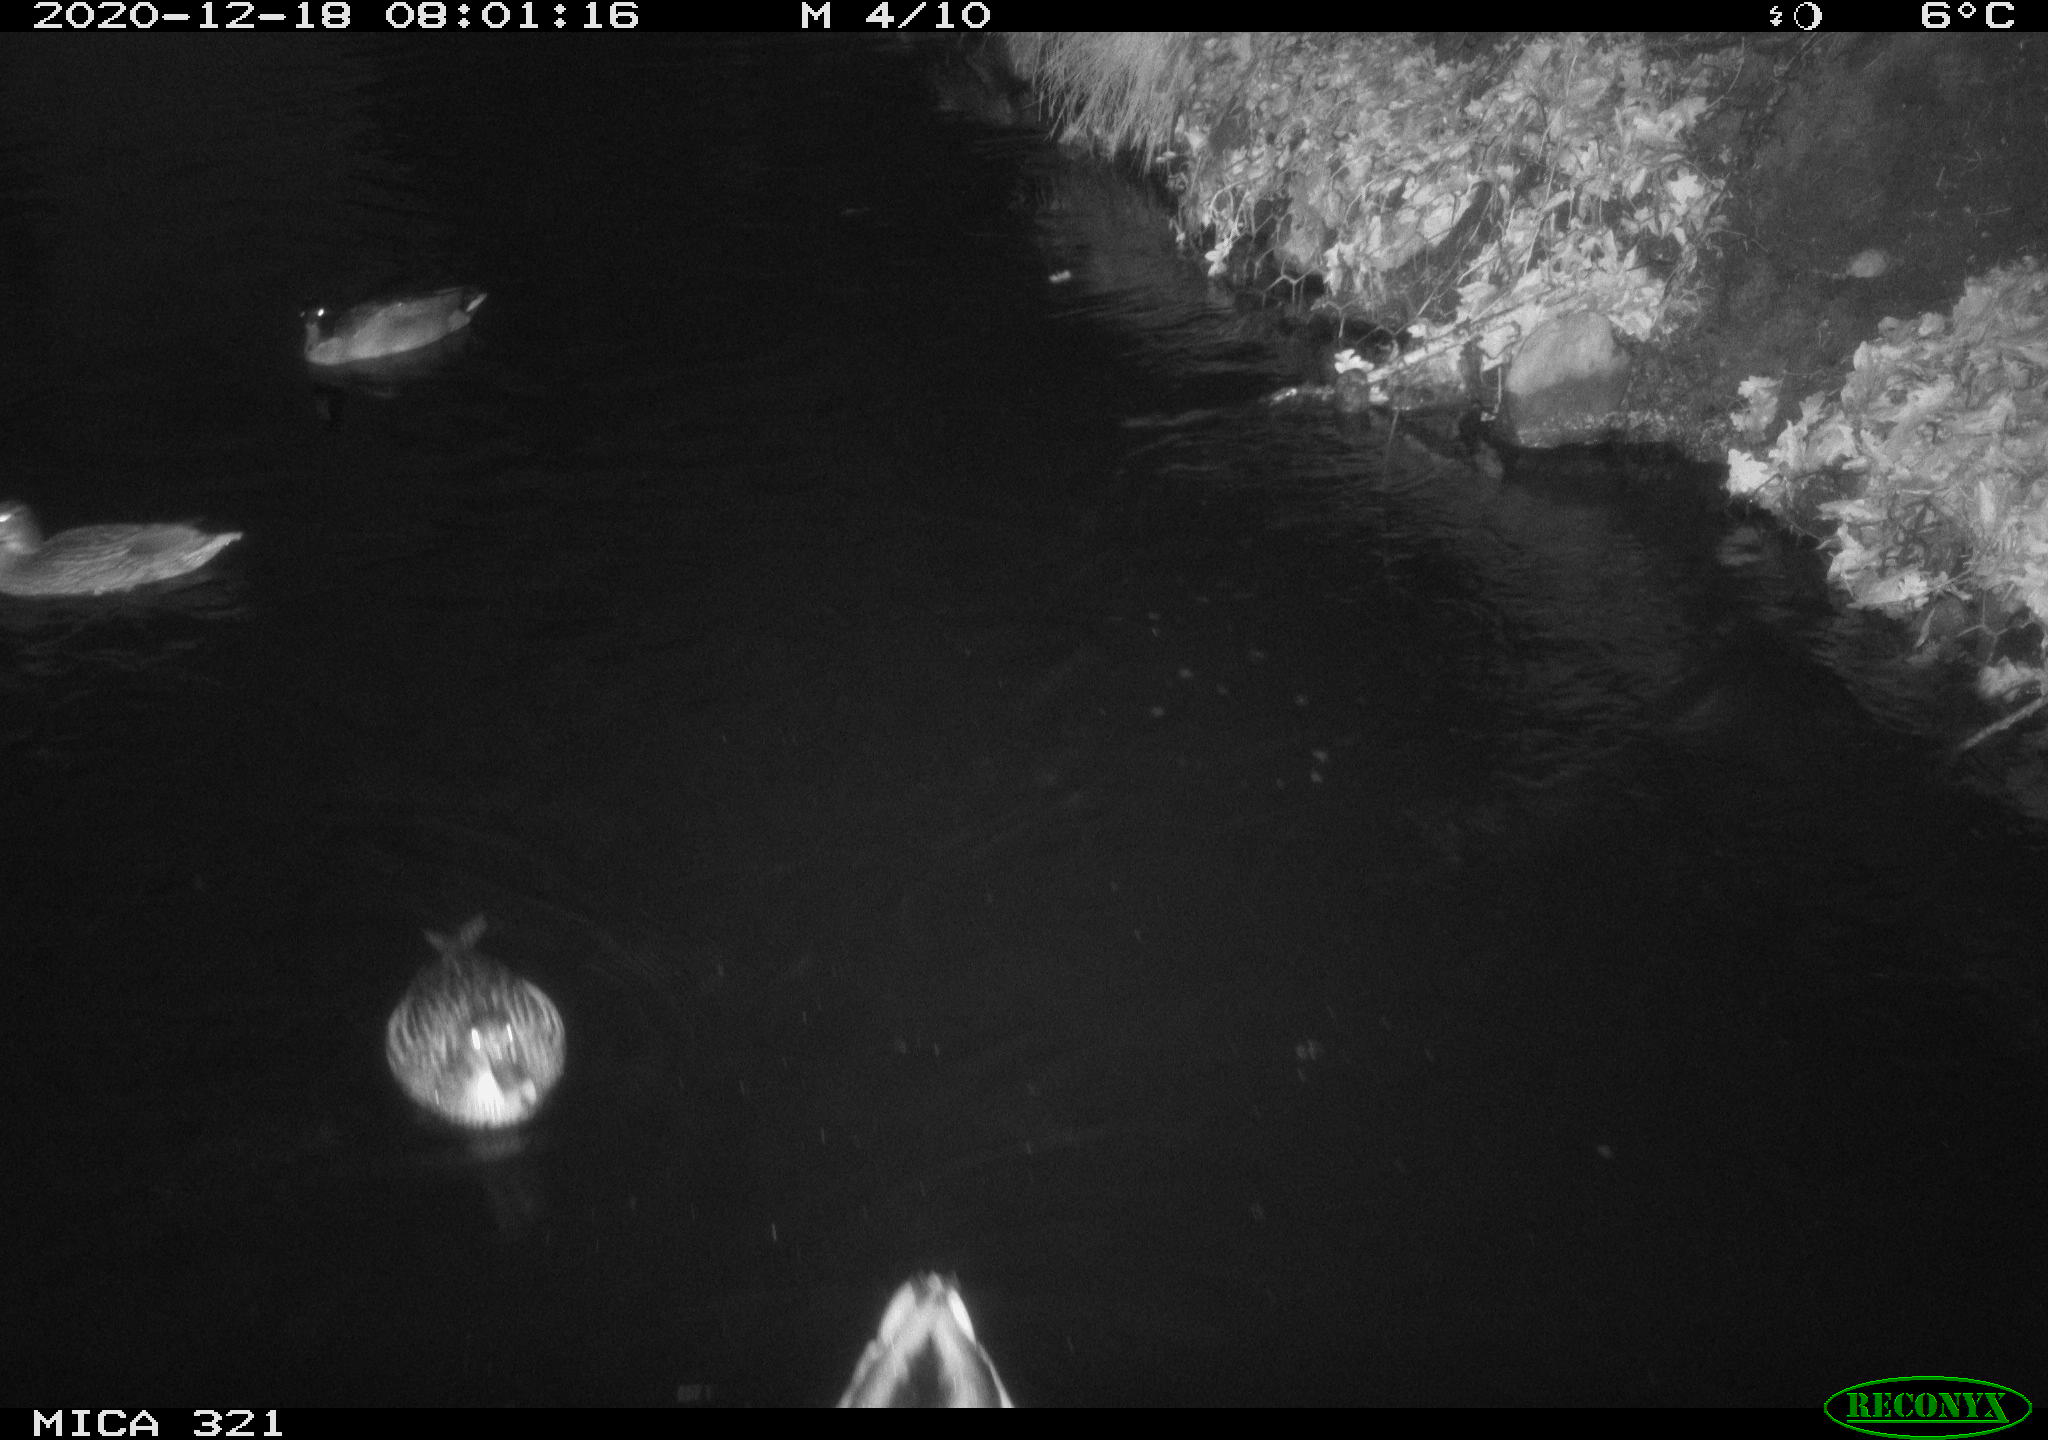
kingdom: Animalia
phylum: Chordata
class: Aves
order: Anseriformes
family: Anatidae
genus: Anas
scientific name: Anas platyrhynchos
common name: Mallard
